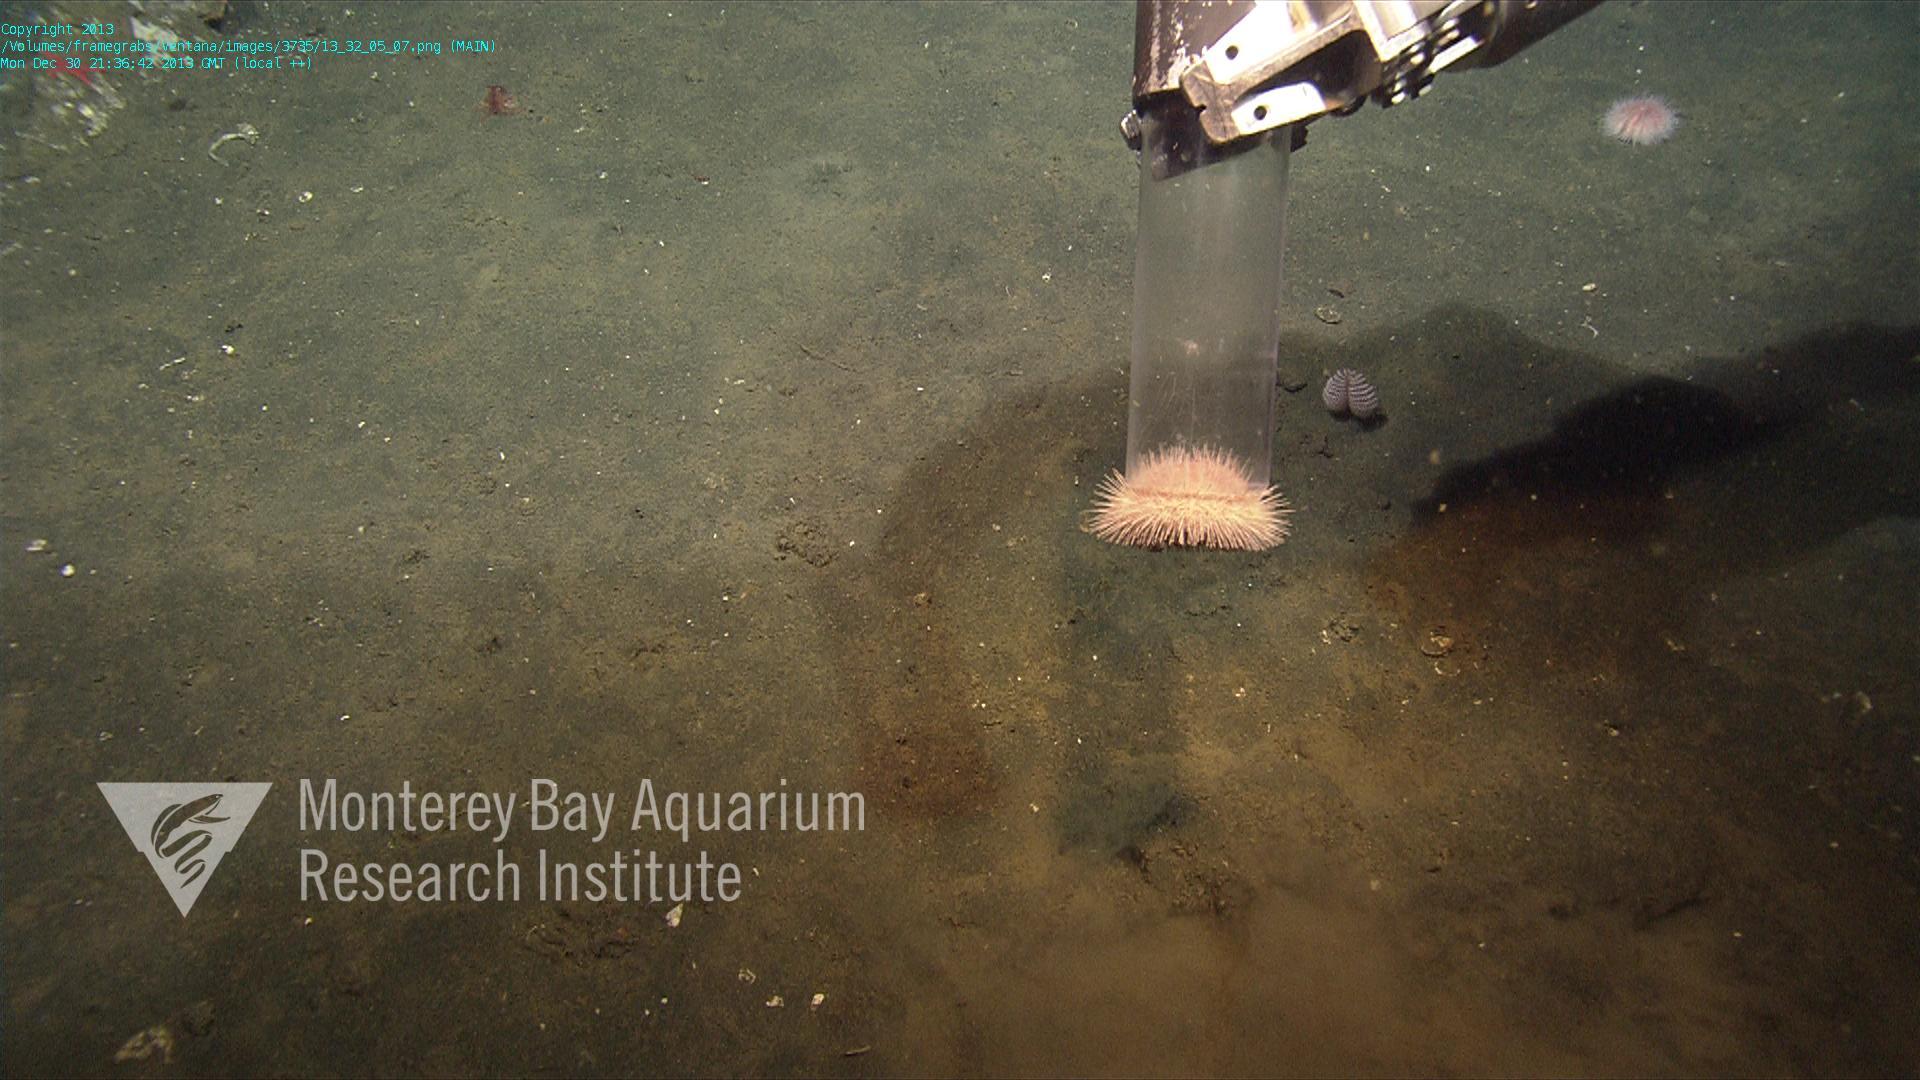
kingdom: Animalia
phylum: Cnidaria
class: Anthozoa
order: Scleralcyonacea
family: Pennatulidae
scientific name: Pennatulidae
